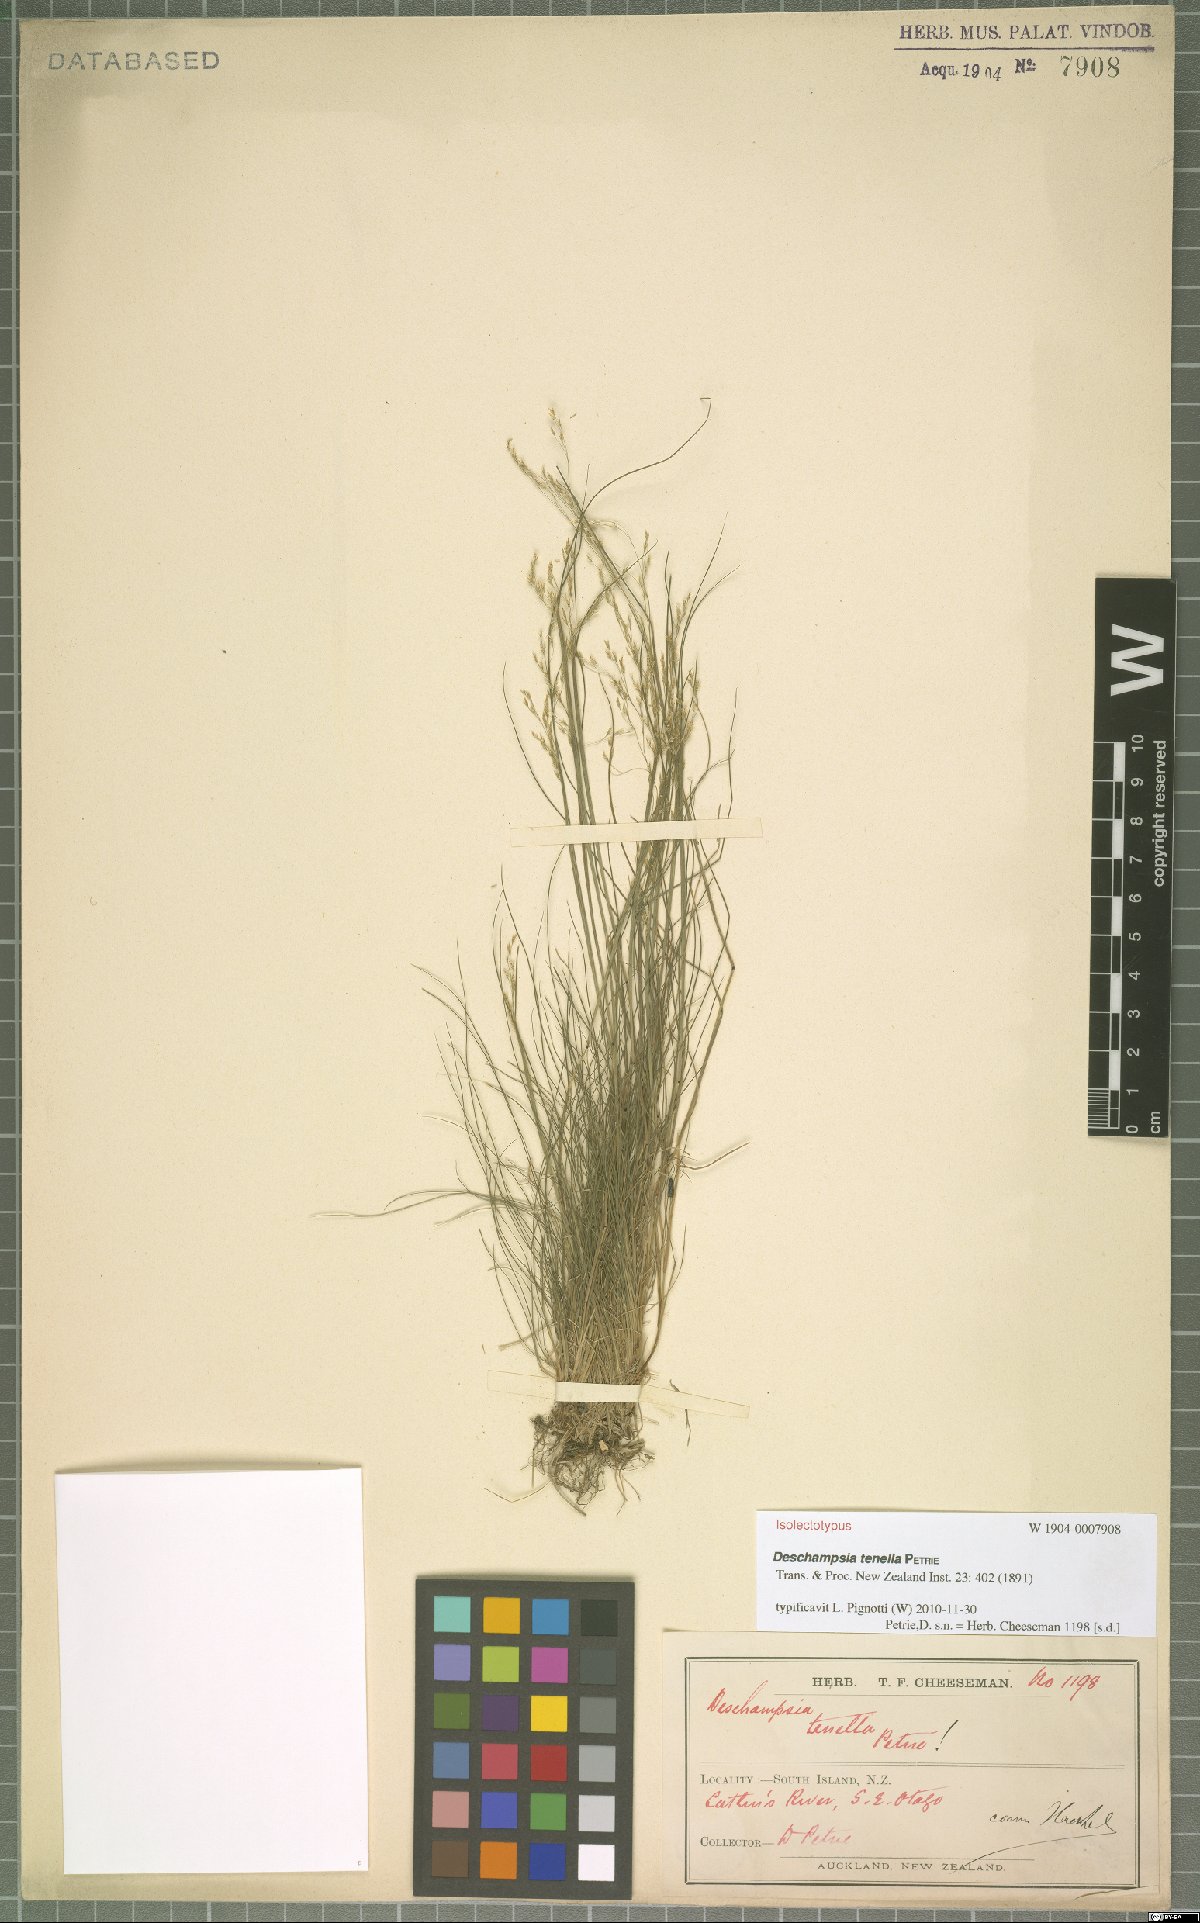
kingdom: Plantae
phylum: Tracheophyta
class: Liliopsida
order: Poales
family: Poaceae
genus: Deschampsia
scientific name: Deschampsia tenella
